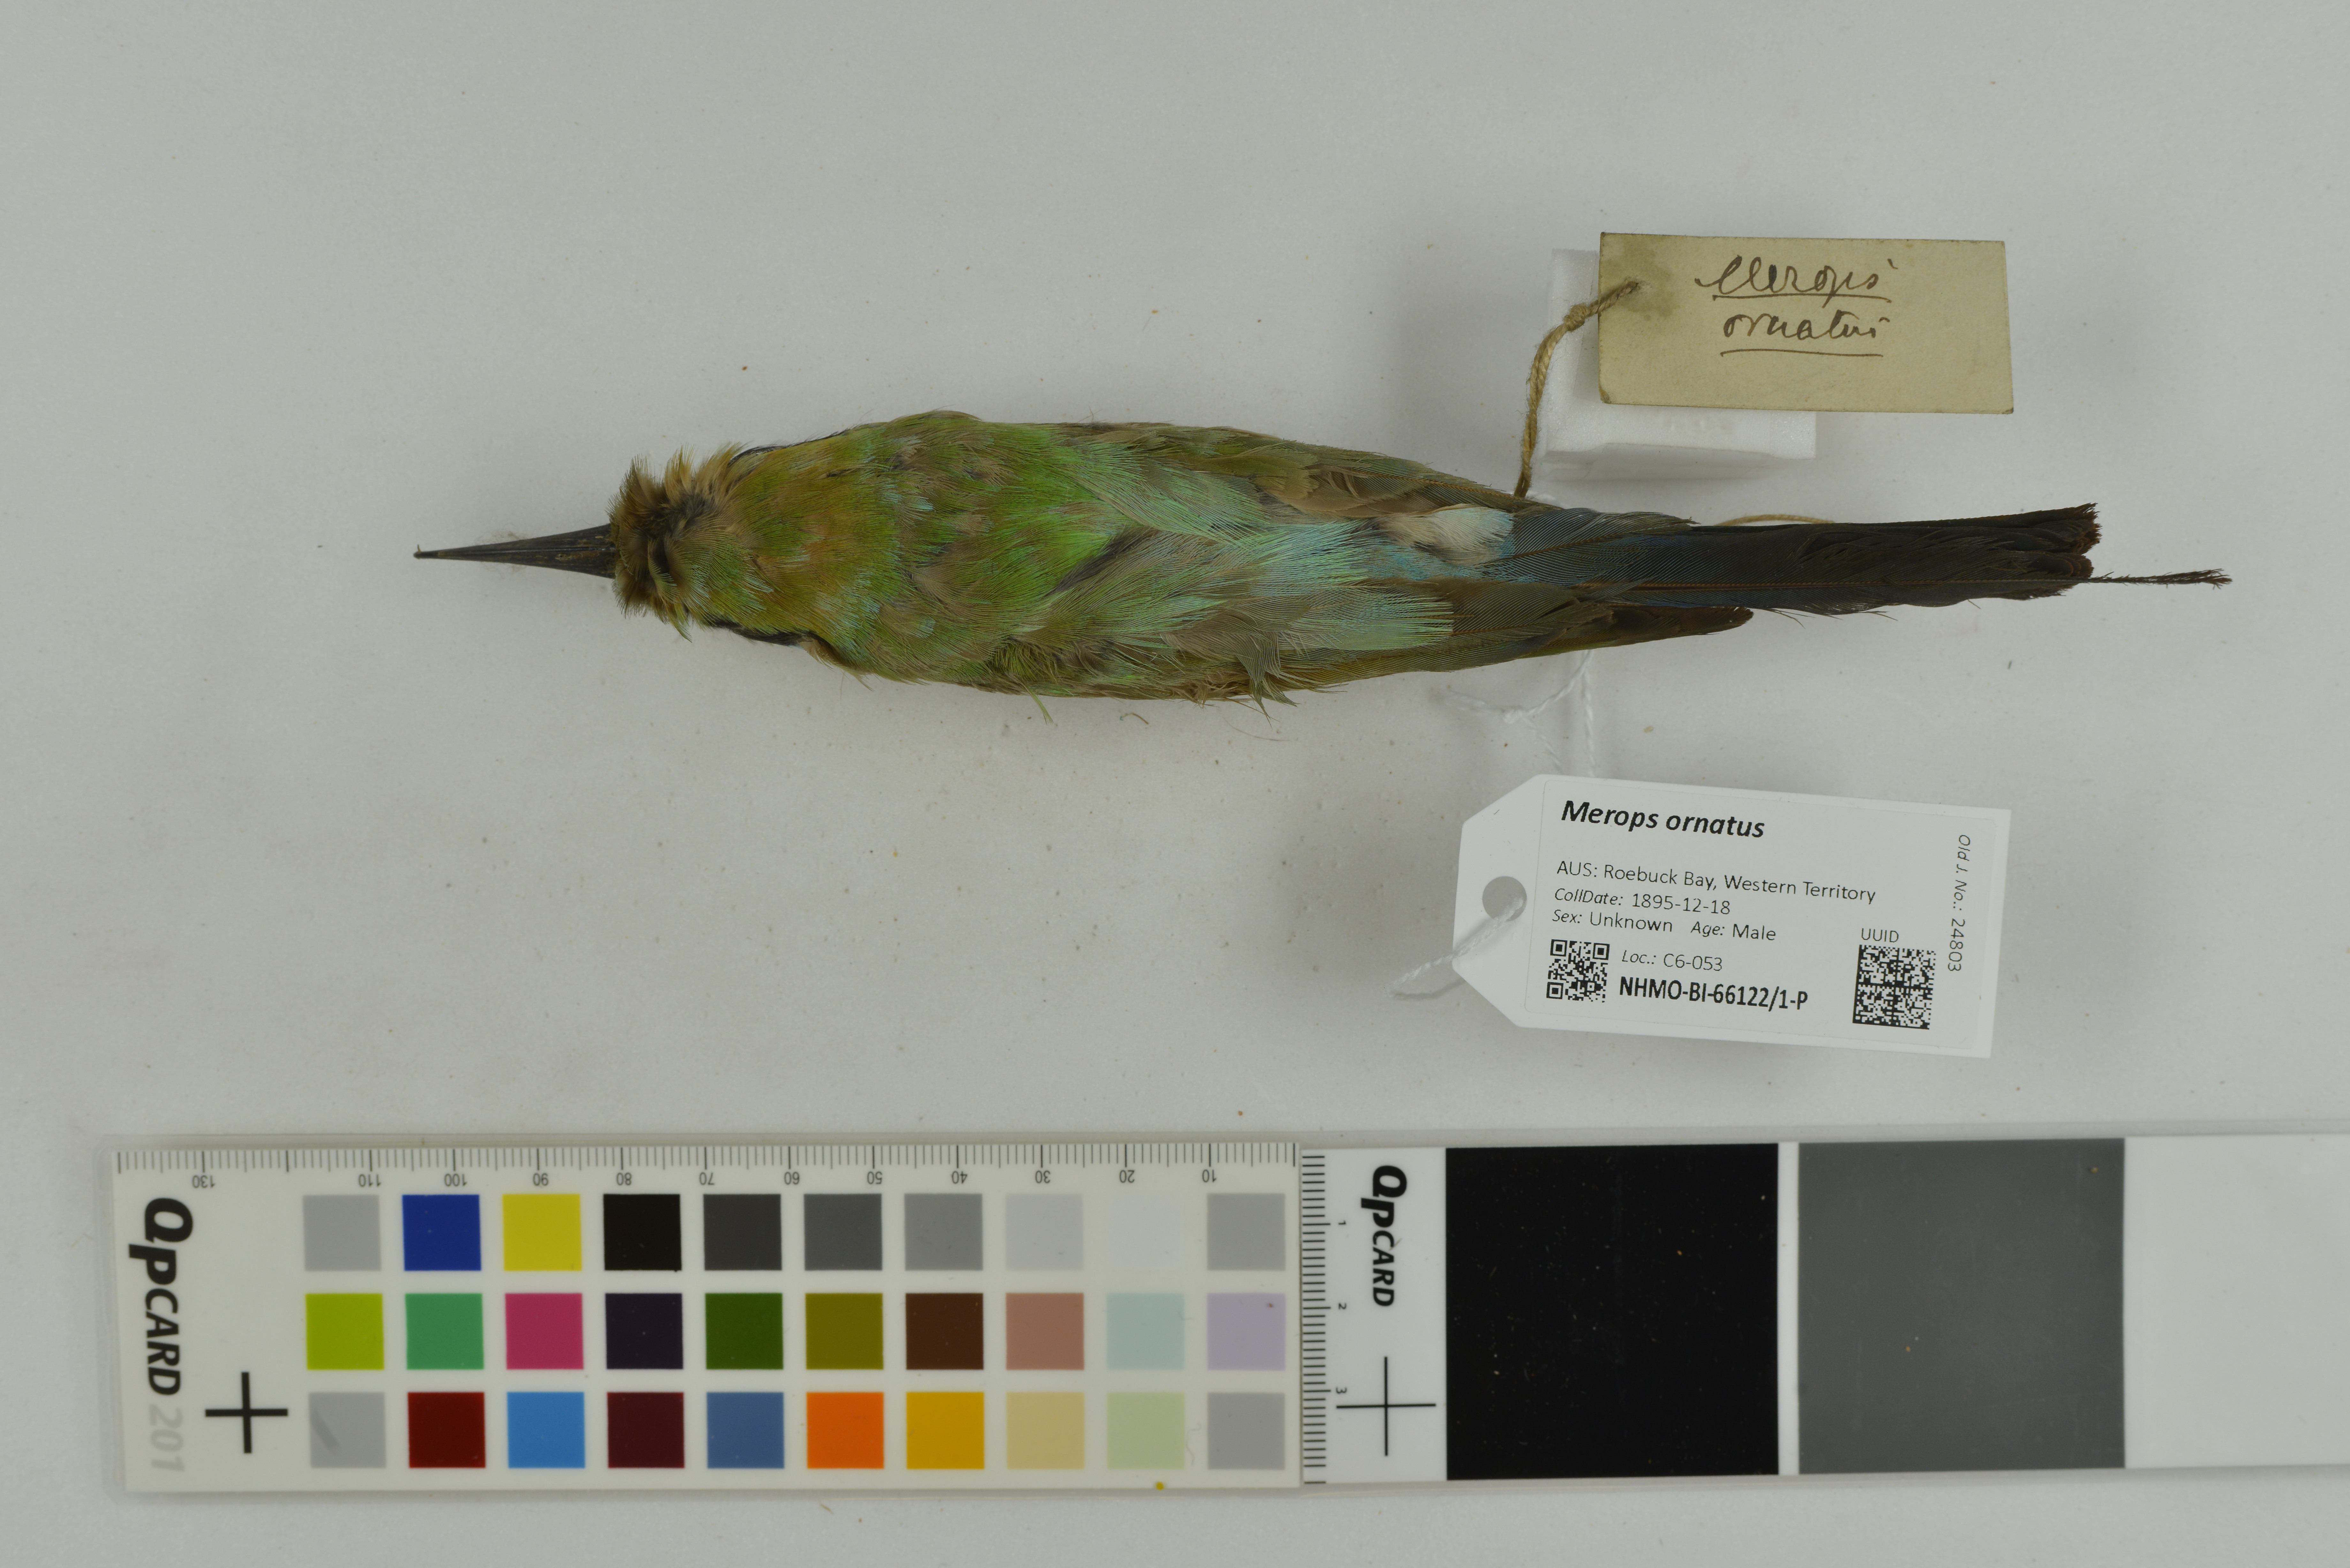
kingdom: Animalia
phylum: Chordata
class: Aves
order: Coraciiformes
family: Meropidae
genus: Merops
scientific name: Merops ornatus
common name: Rainbow bee-eater
